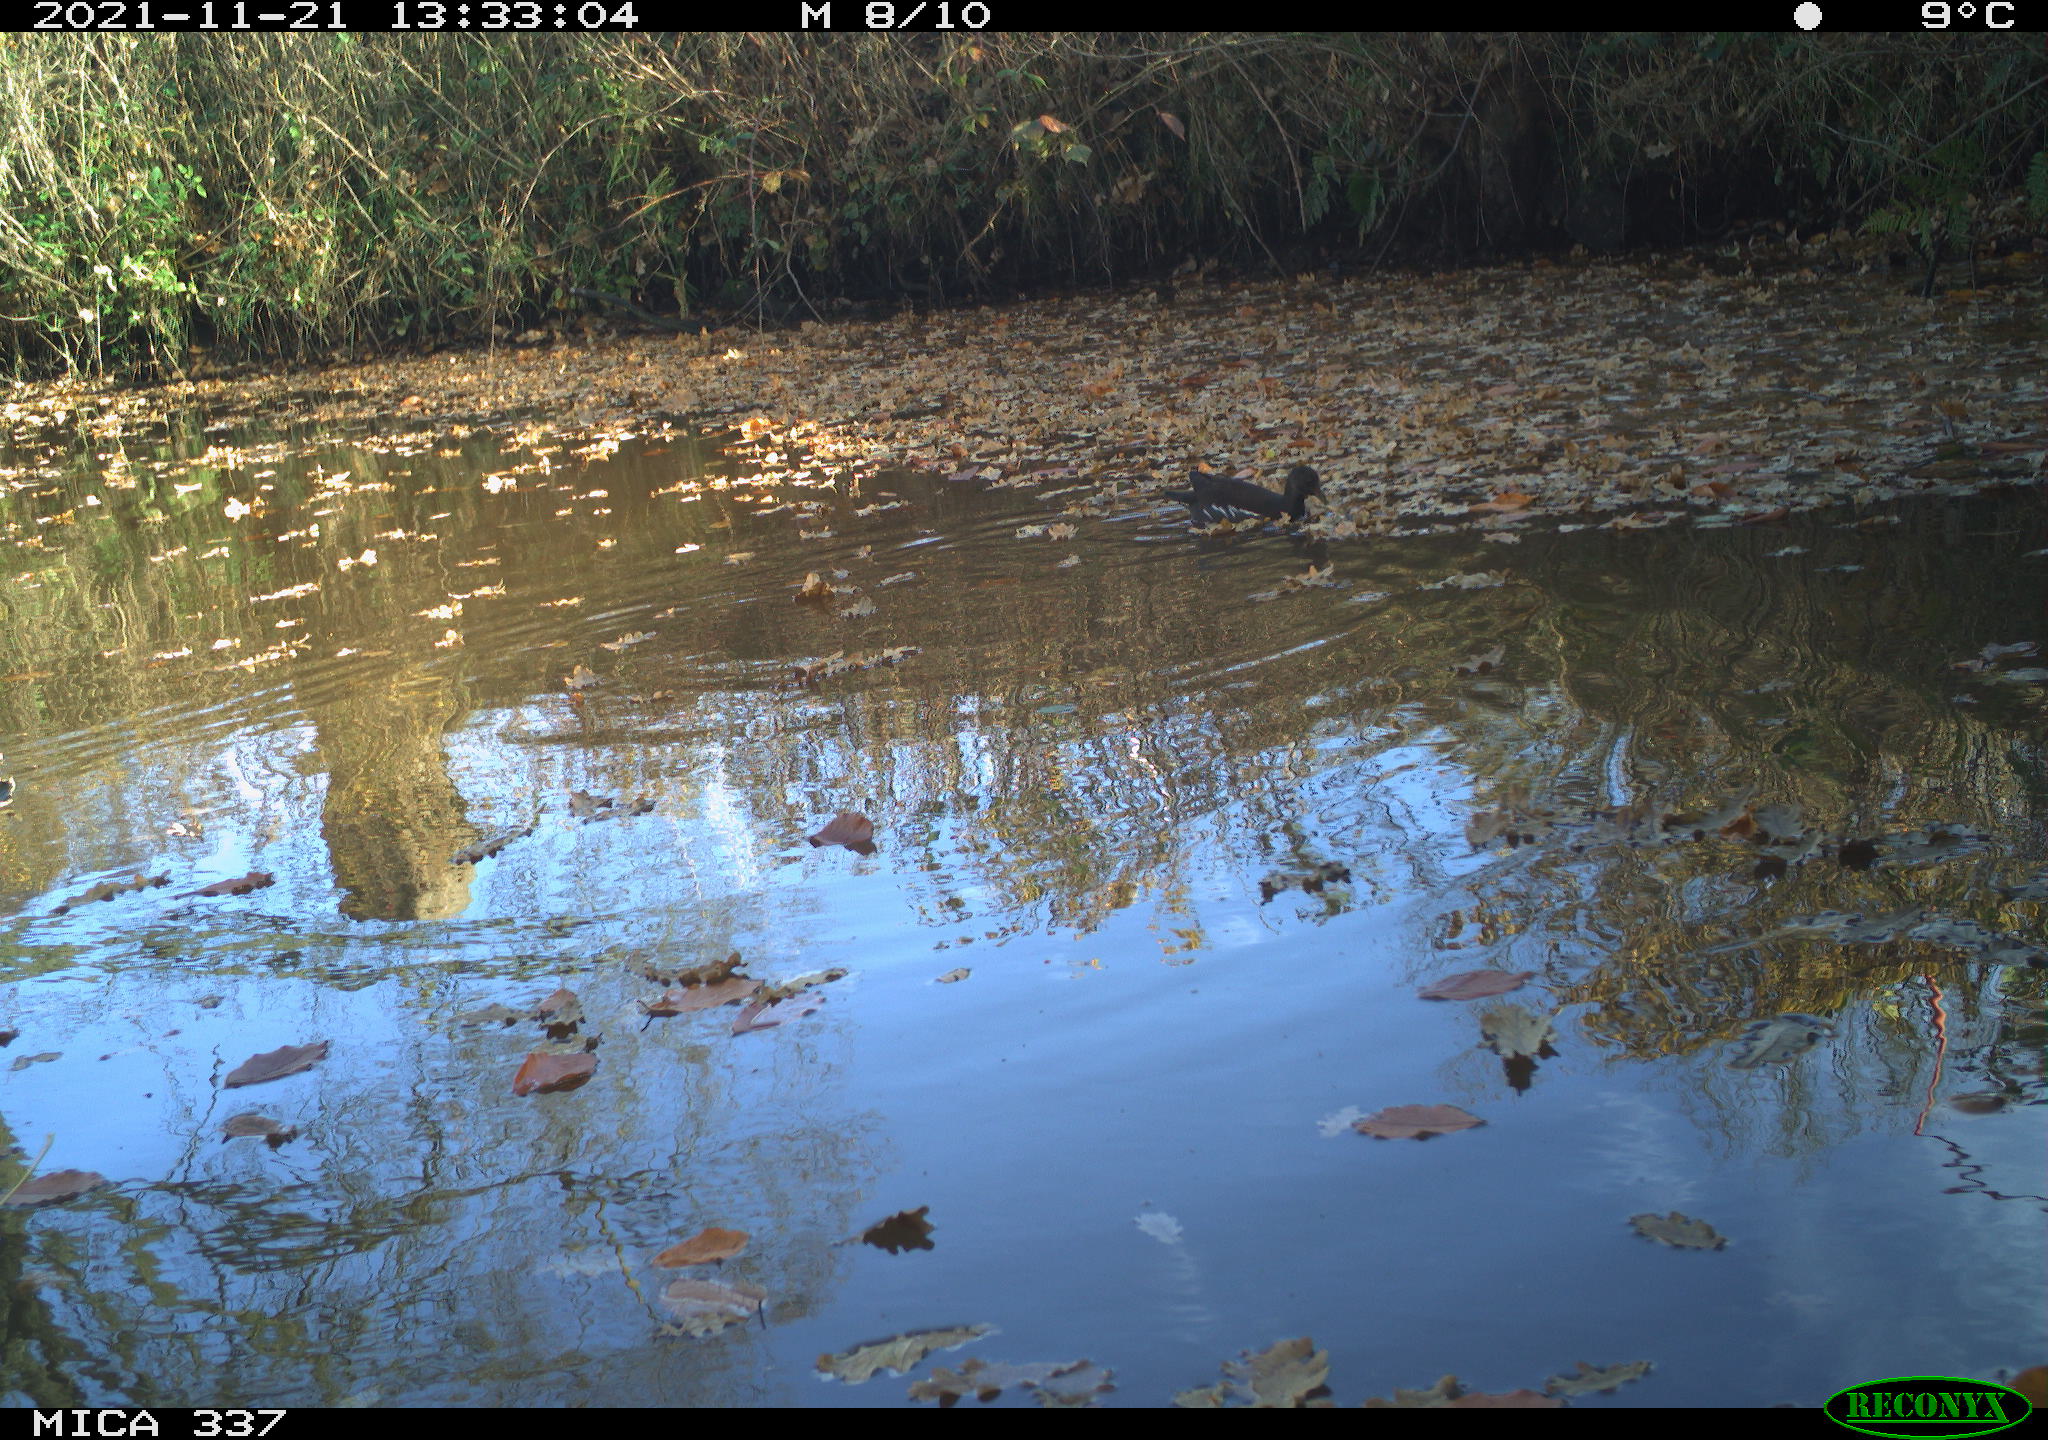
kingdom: Animalia
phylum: Chordata
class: Aves
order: Gruiformes
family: Rallidae
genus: Gallinula
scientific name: Gallinula chloropus
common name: Common moorhen
